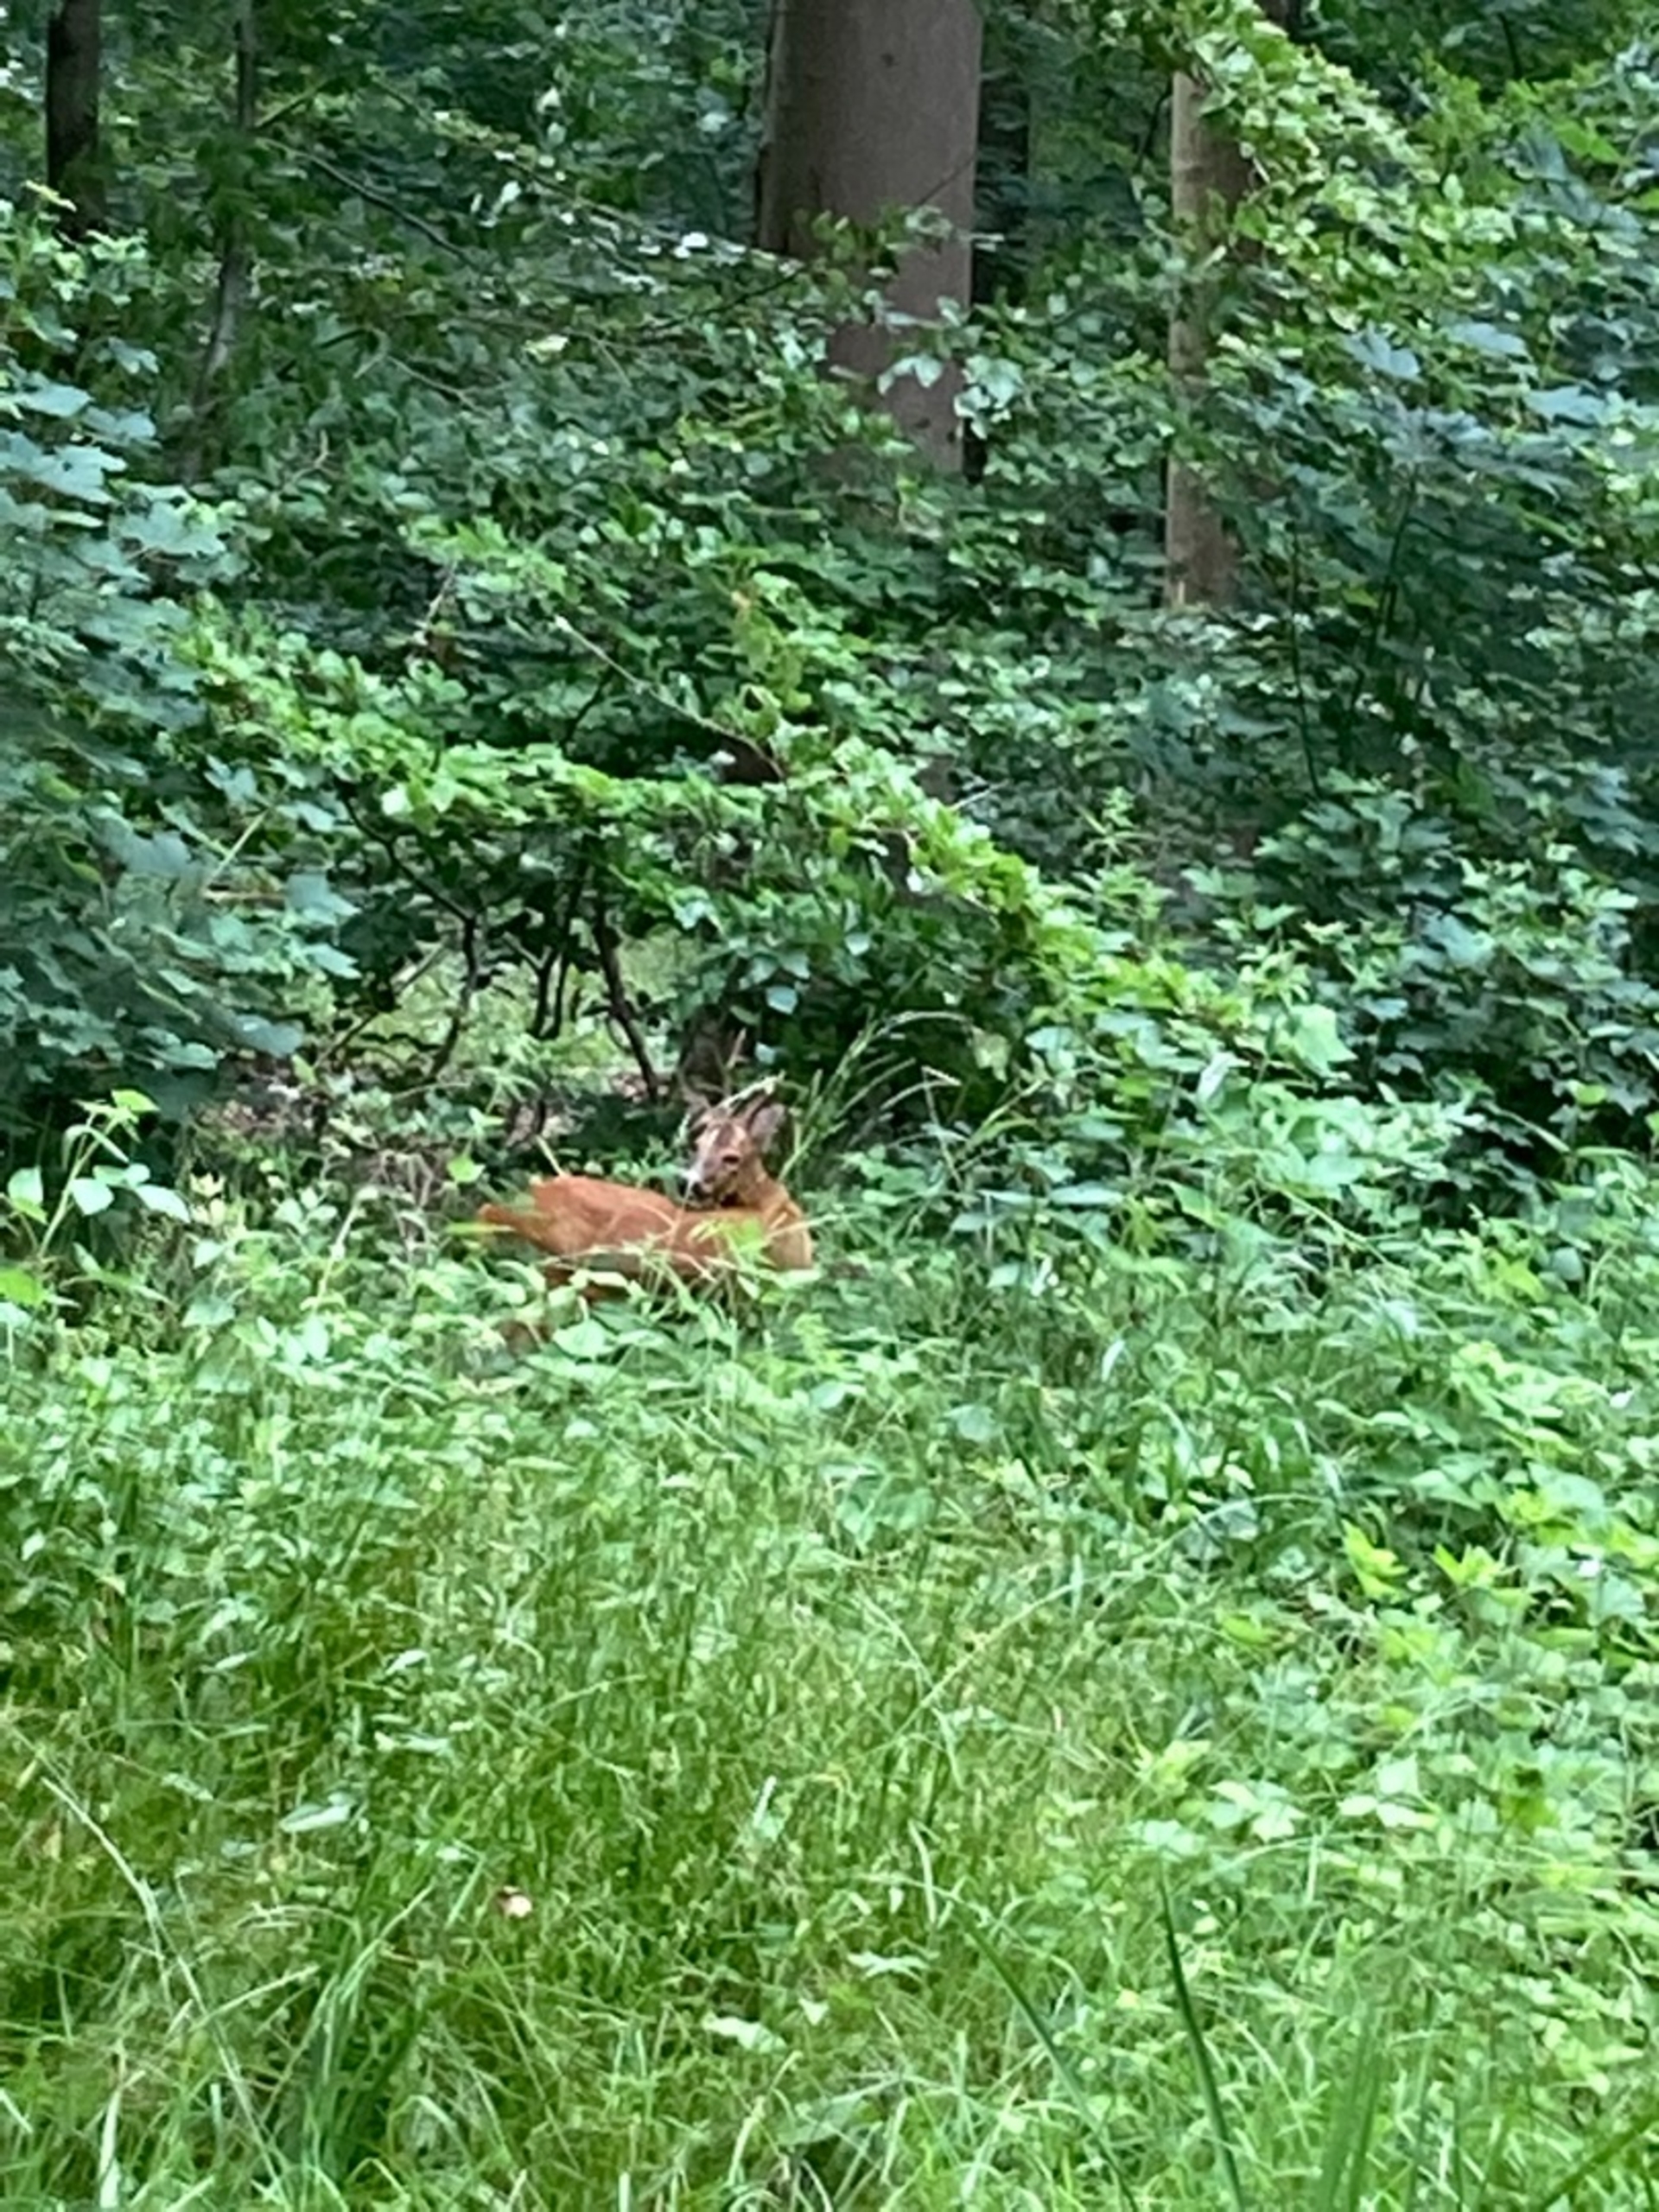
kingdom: Animalia
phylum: Chordata
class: Mammalia
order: Artiodactyla
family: Cervidae
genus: Capreolus
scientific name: Capreolus capreolus
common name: Rådyr
